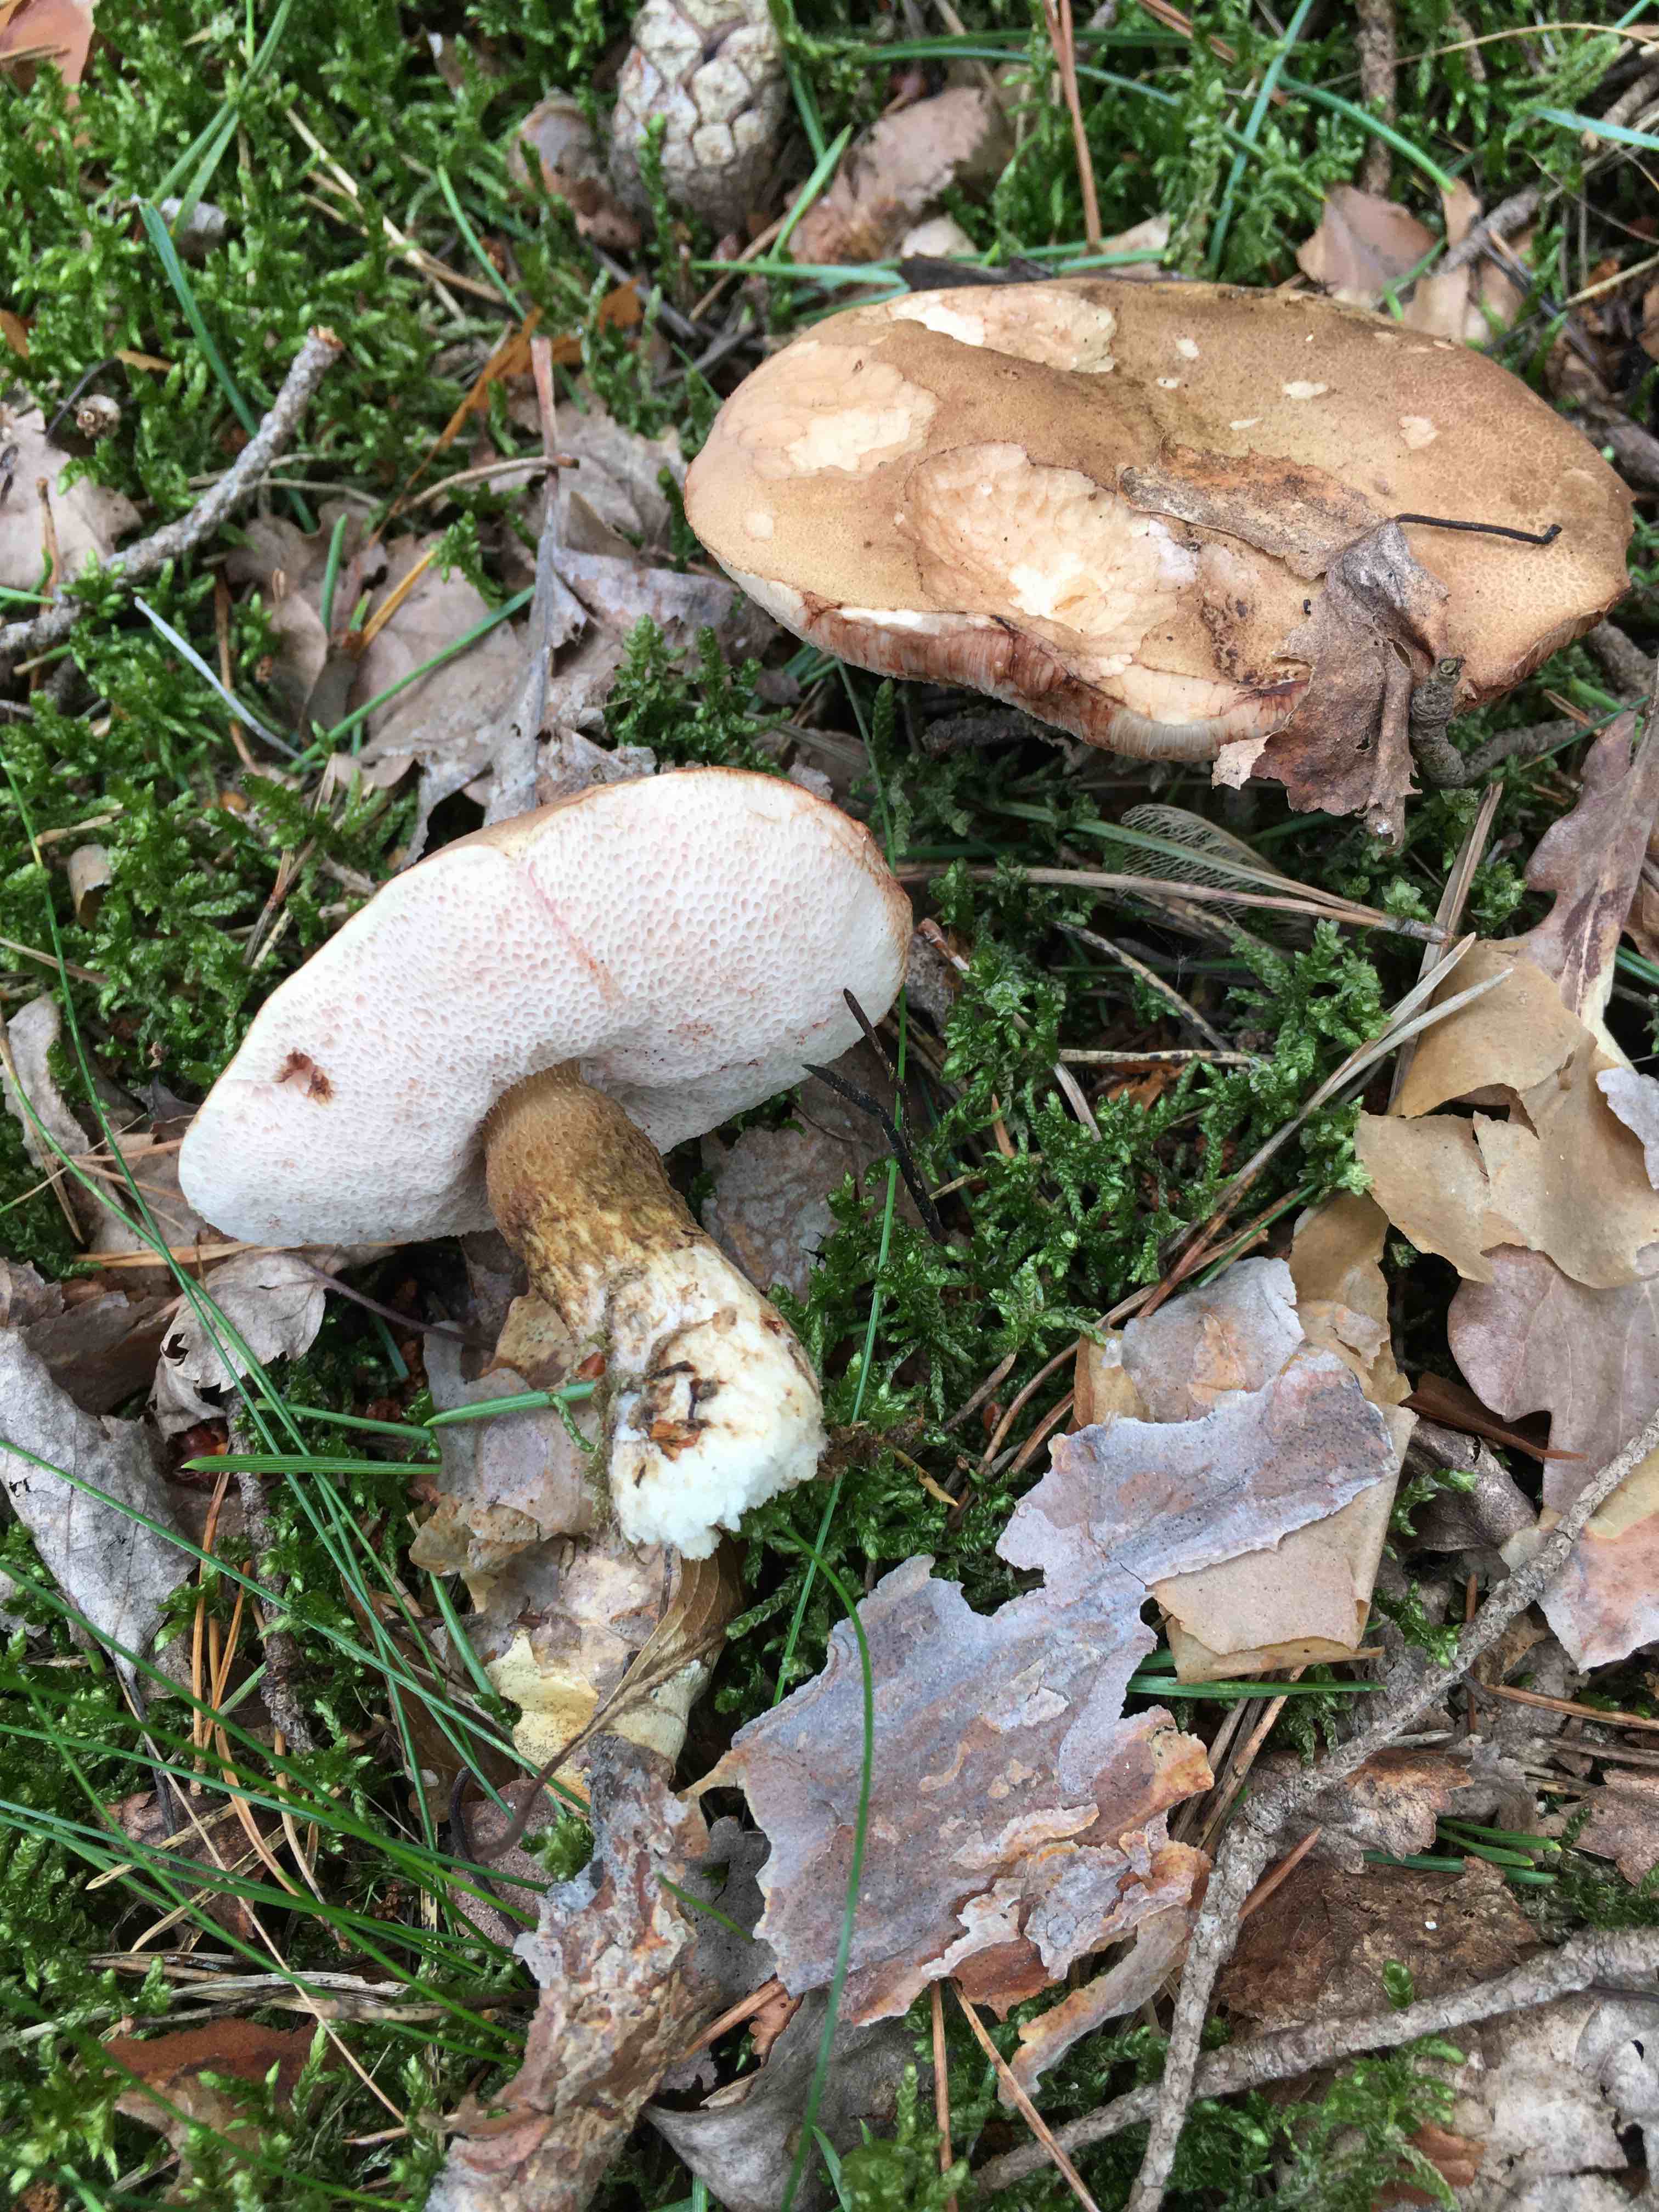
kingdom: Fungi
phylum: Basidiomycota
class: Agaricomycetes
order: Boletales
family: Boletaceae
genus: Tylopilus
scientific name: Tylopilus felleus
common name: galderørhat
